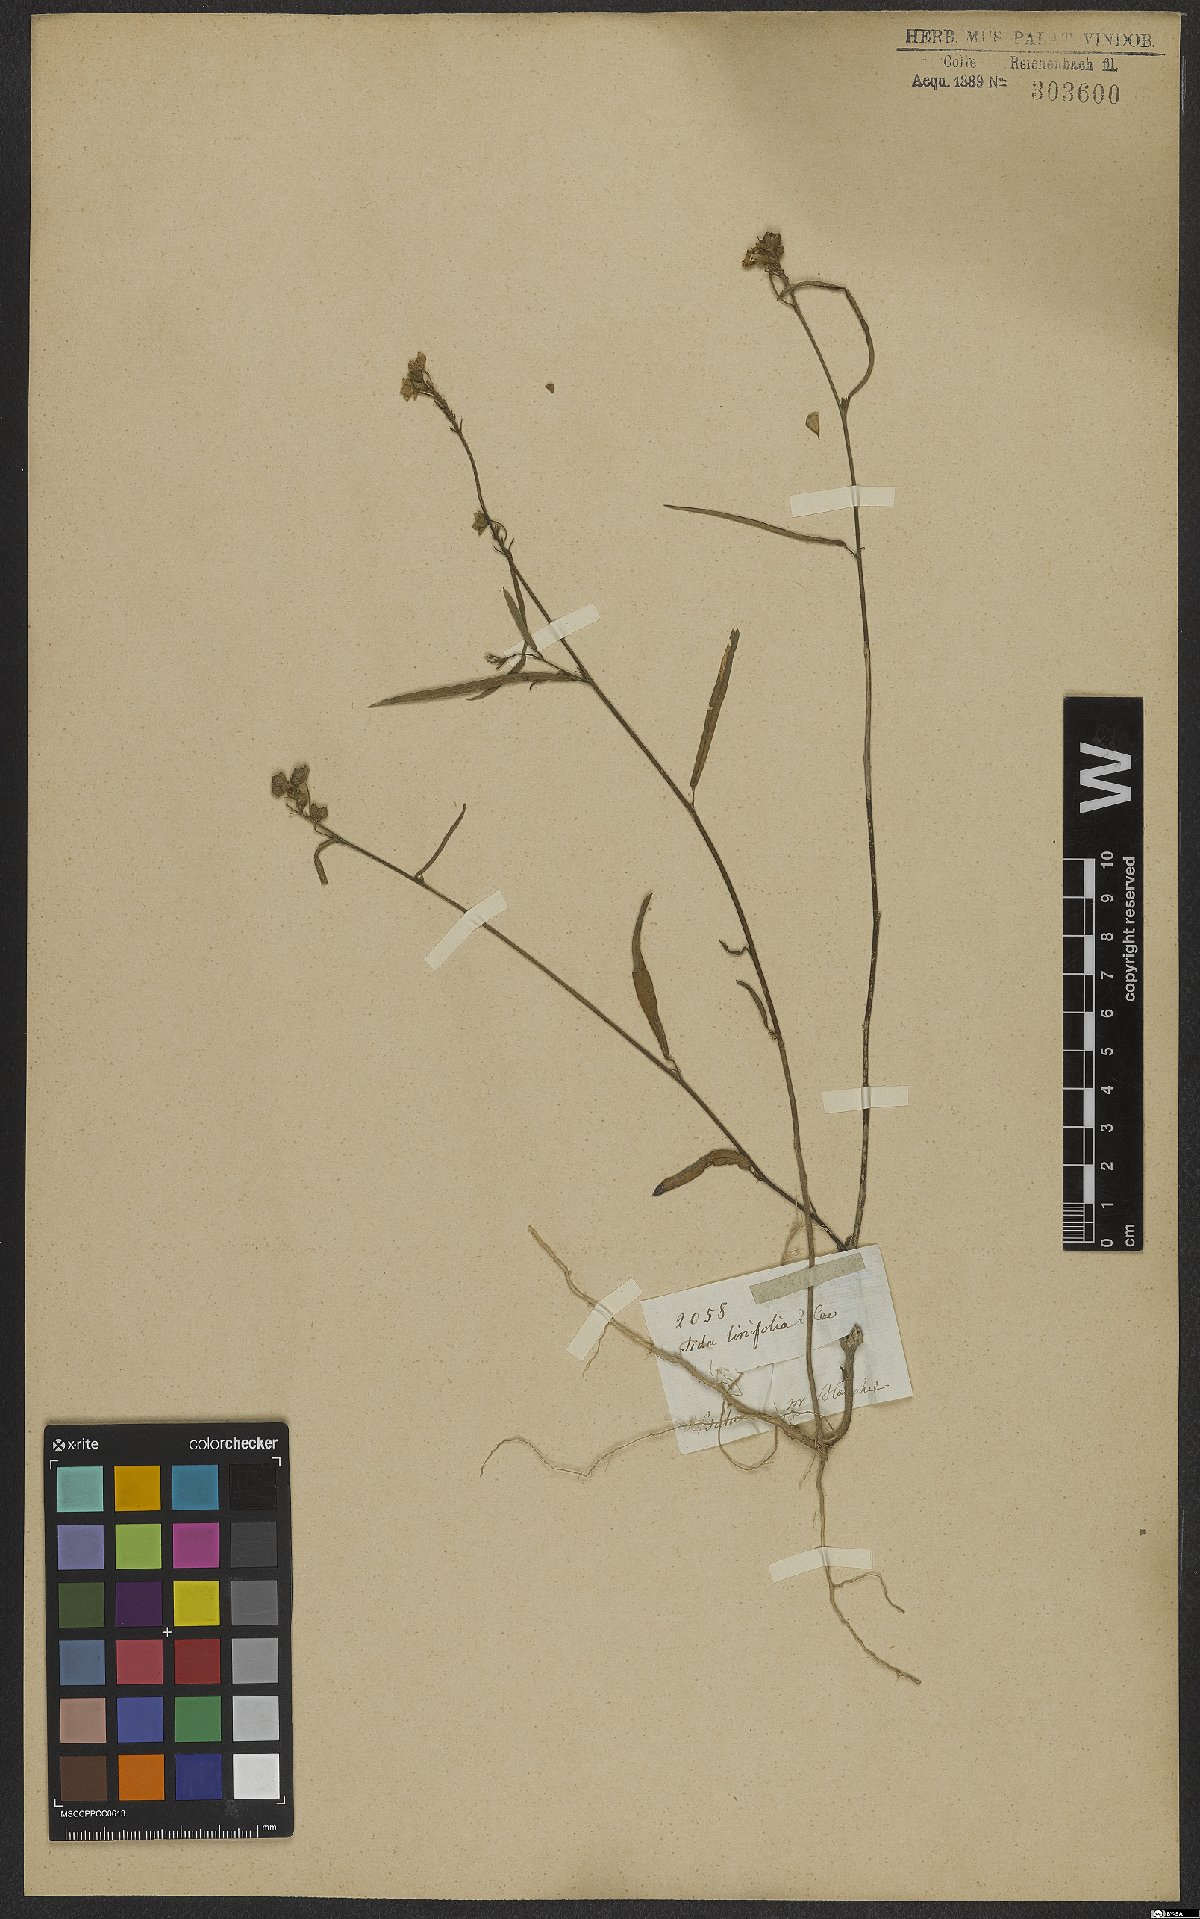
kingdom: Plantae
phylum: Tracheophyta
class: Magnoliopsida
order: Malvales
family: Malvaceae
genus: Sida
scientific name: Sida linifolia
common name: Flaxleaf fanpetals
